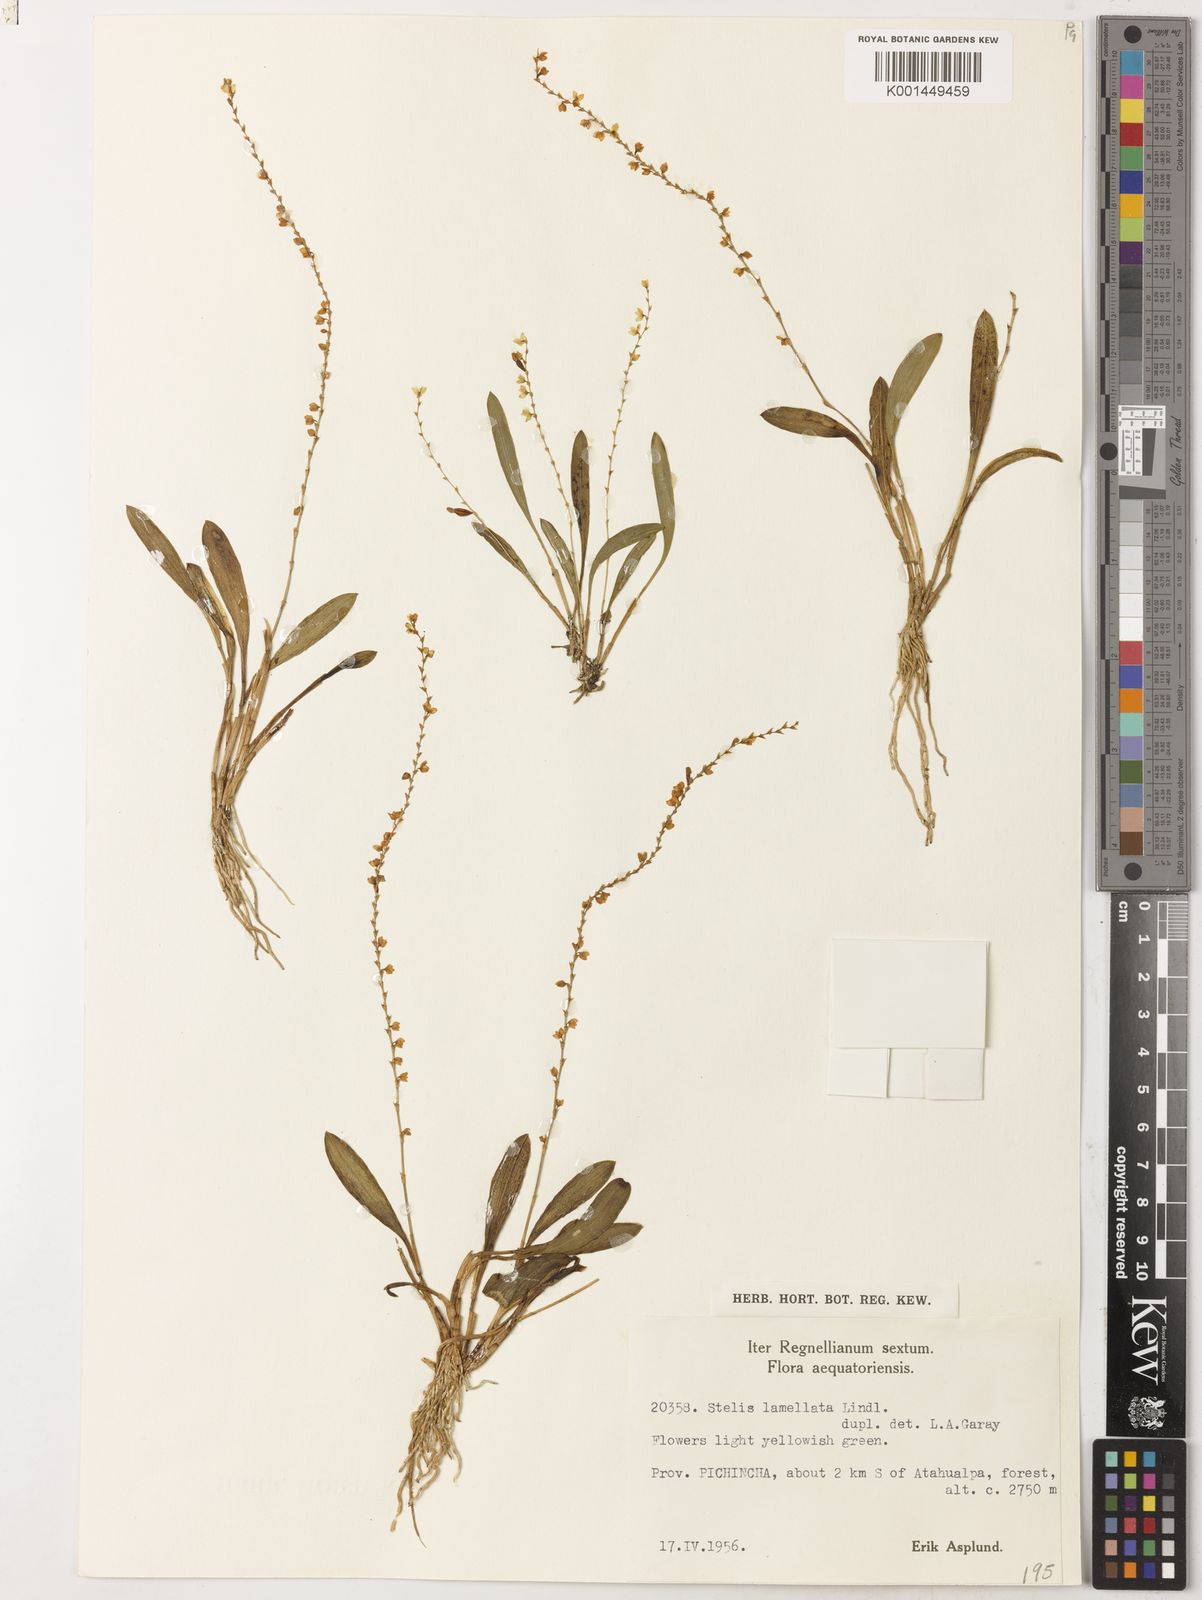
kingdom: Plantae
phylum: Tracheophyta
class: Liliopsida
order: Asparagales
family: Orchidaceae
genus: Stelis
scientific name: Stelis lamellata
